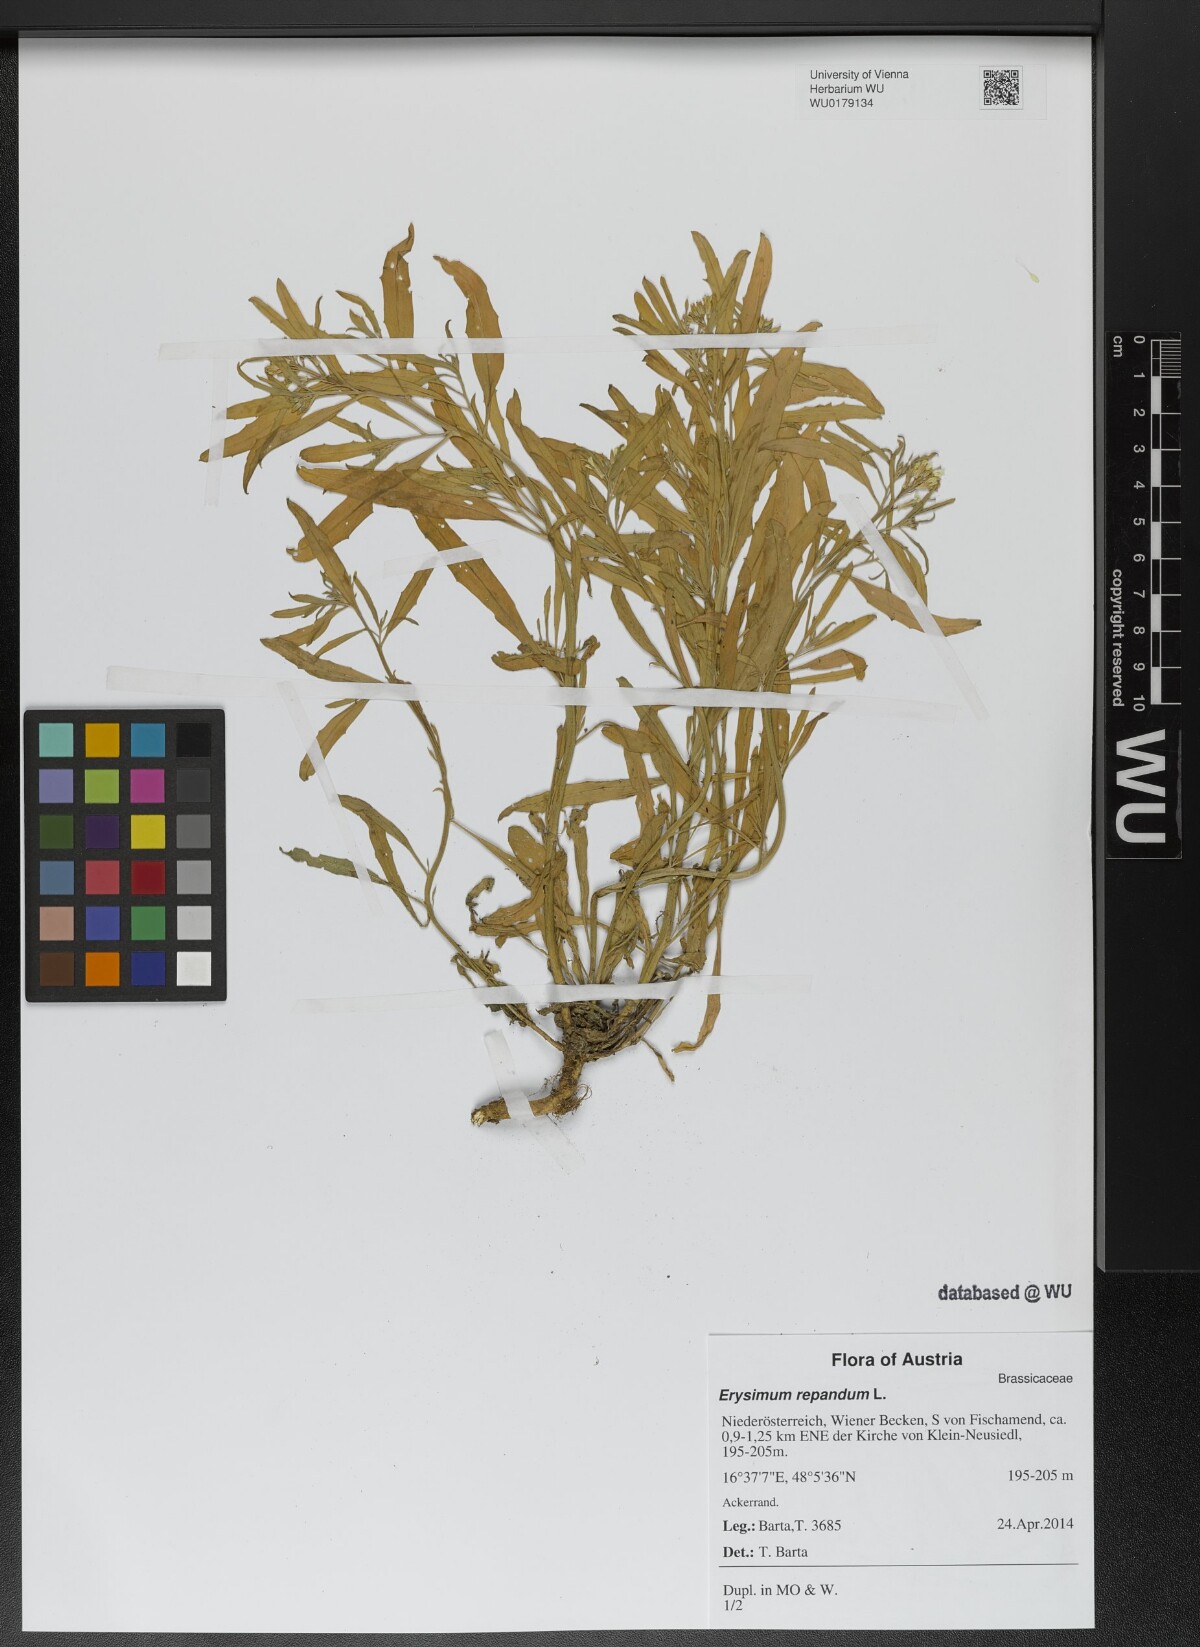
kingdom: Plantae
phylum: Tracheophyta
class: Magnoliopsida
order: Brassicales
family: Brassicaceae
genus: Erysimum
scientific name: Erysimum repandum
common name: Spreading wallflower
